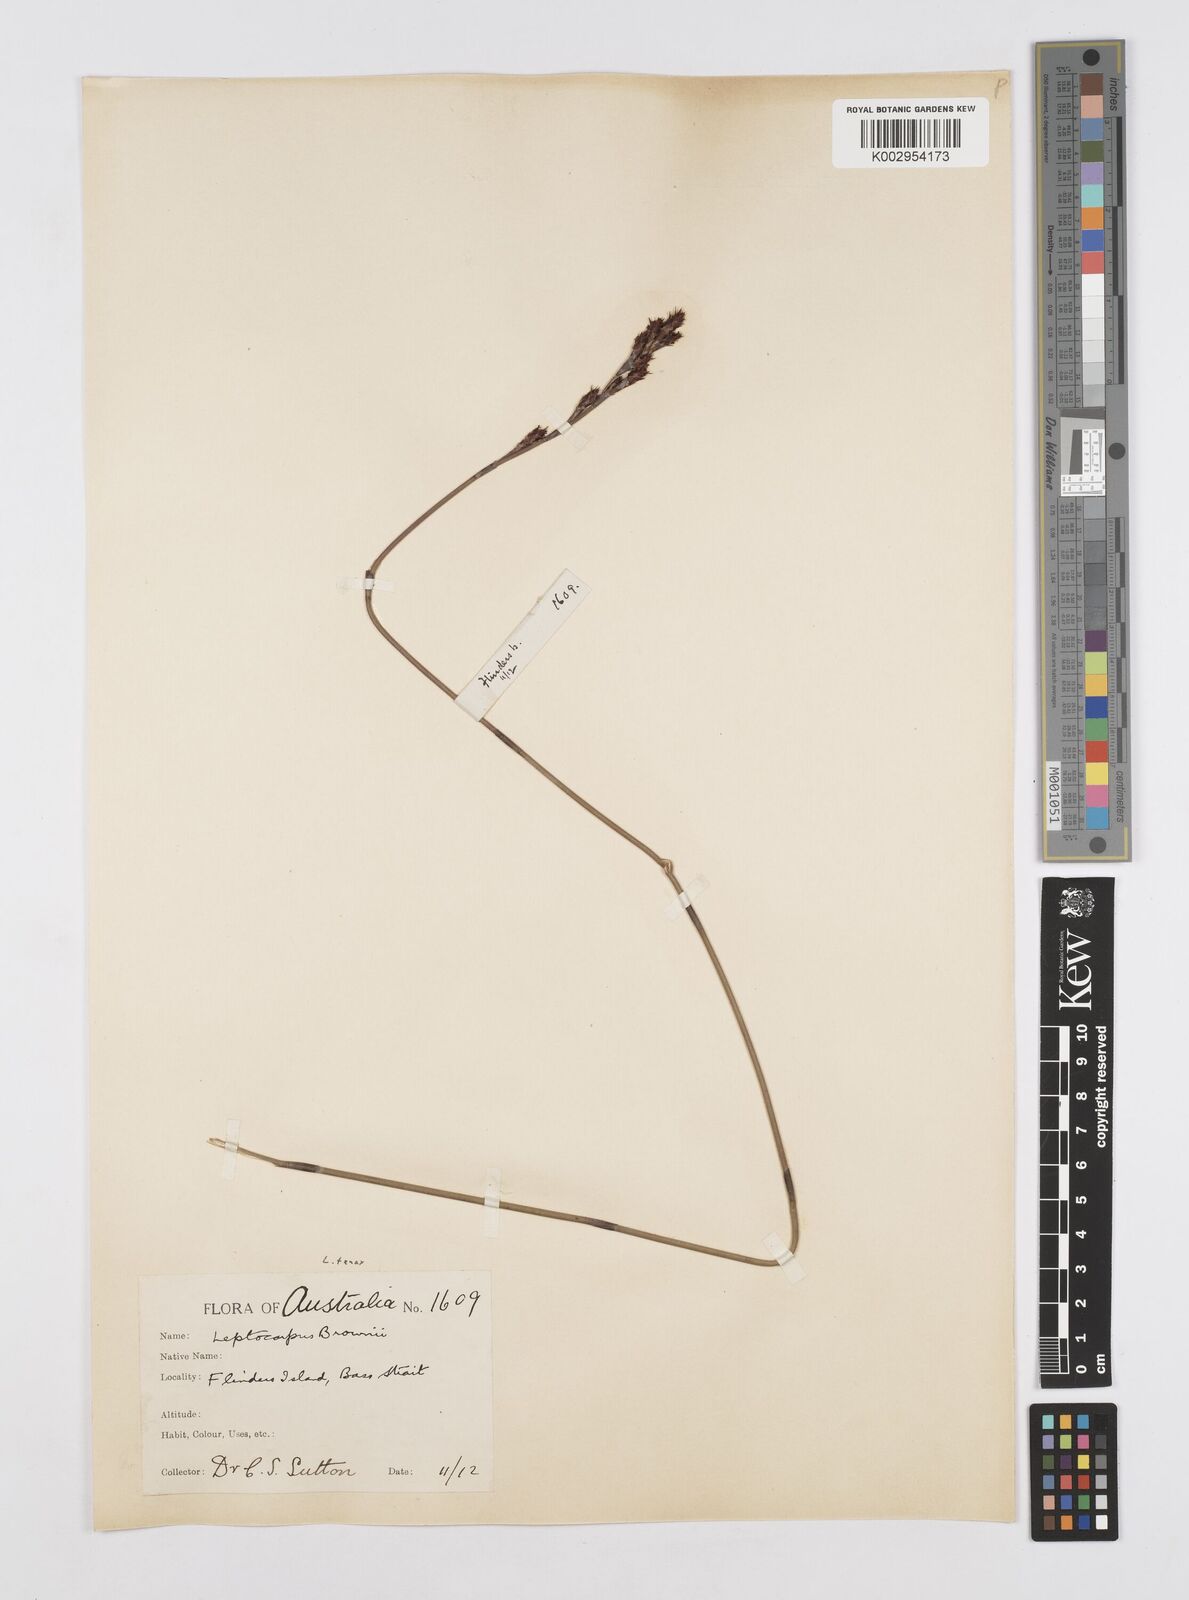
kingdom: Plantae
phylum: Tracheophyta
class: Liliopsida
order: Poales
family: Restionaceae
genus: Leptocarpus
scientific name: Leptocarpus tenax
